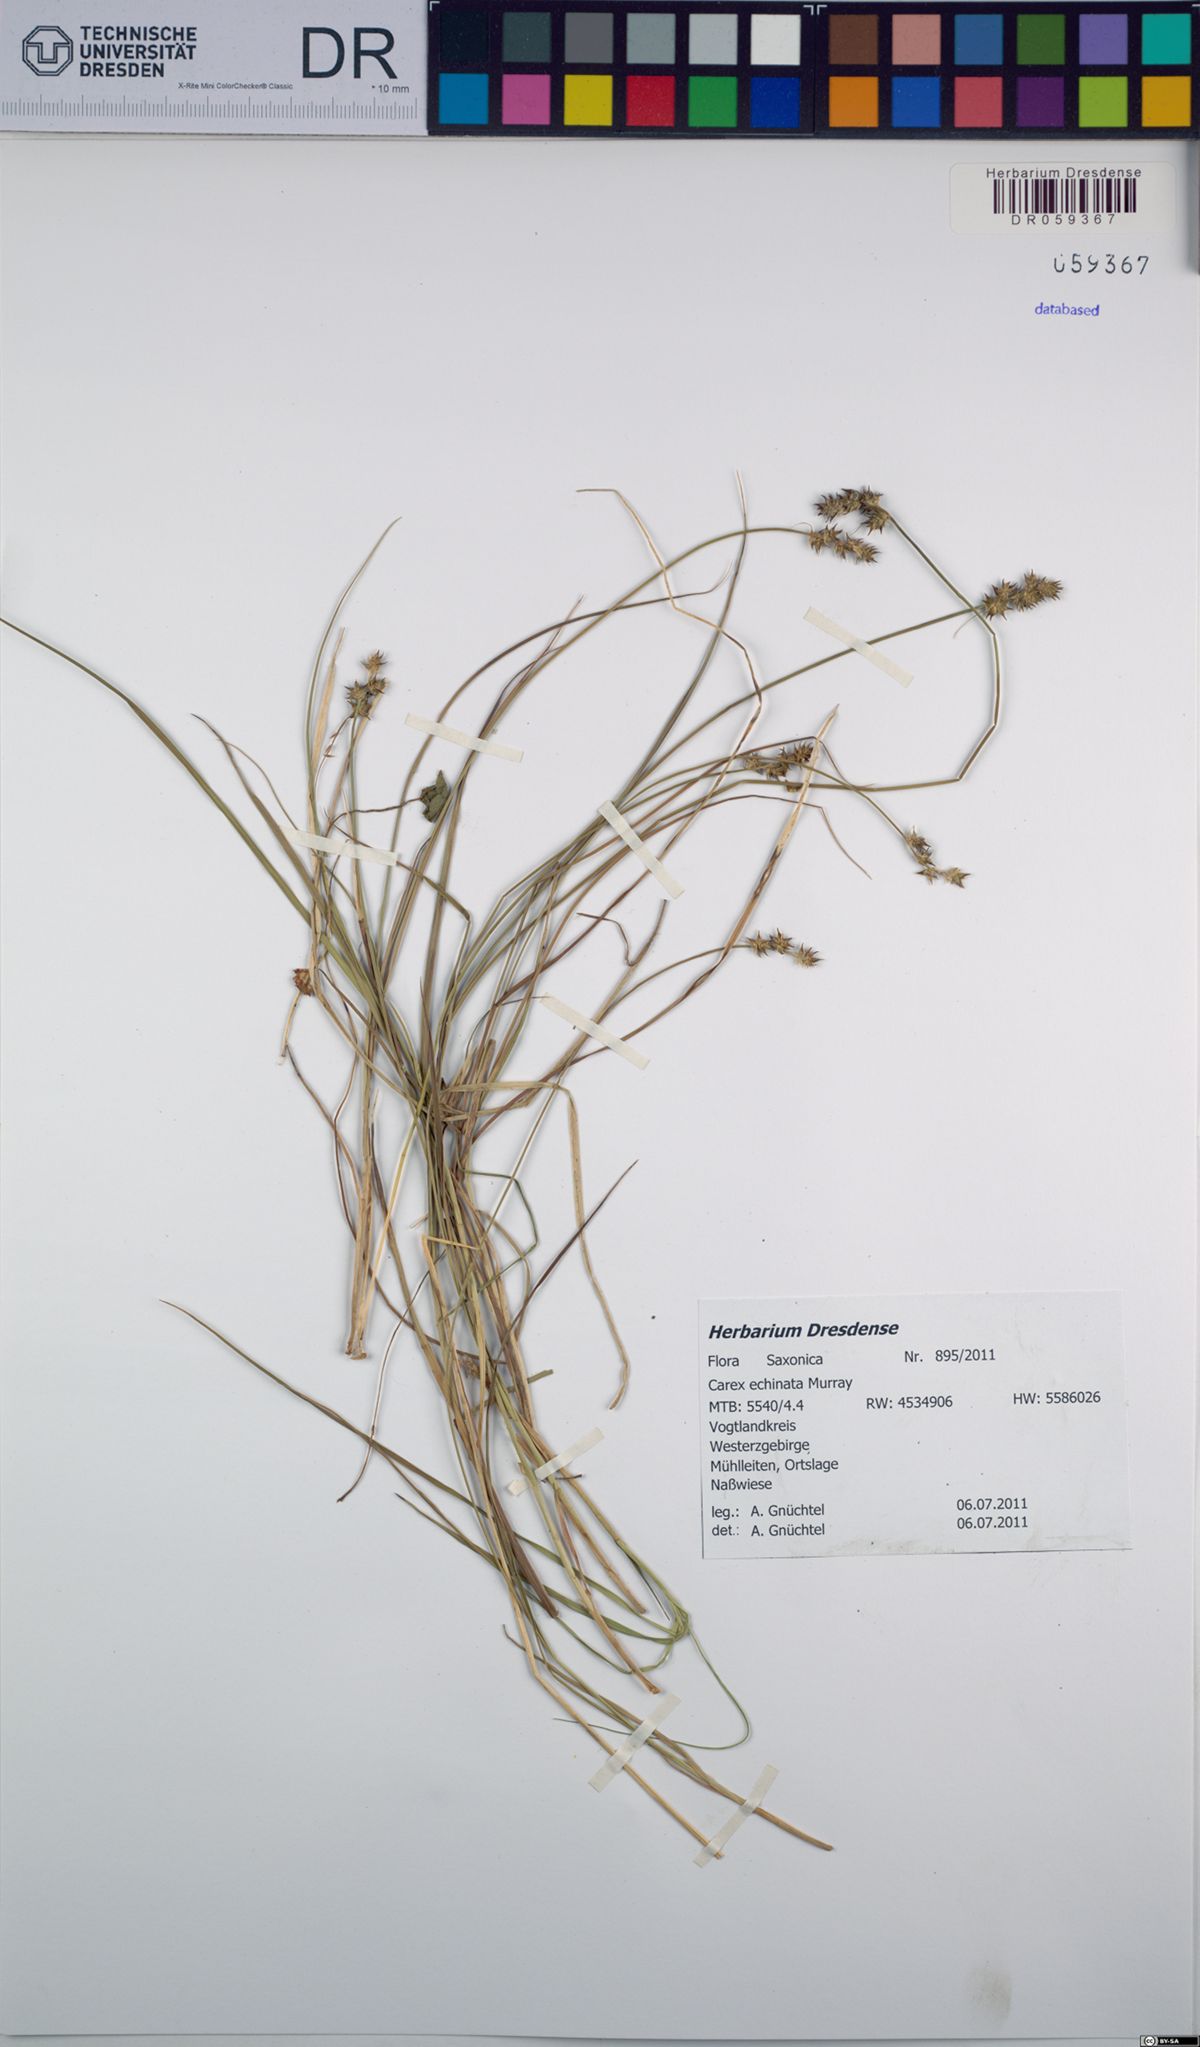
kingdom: Plantae
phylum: Tracheophyta
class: Liliopsida
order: Poales
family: Cyperaceae
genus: Carex
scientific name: Carex echinata
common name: Star sedge
